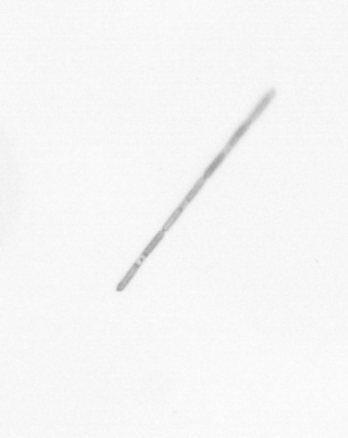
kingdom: Chromista
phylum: Ochrophyta
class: Bacillariophyceae
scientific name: Bacillariophyceae
